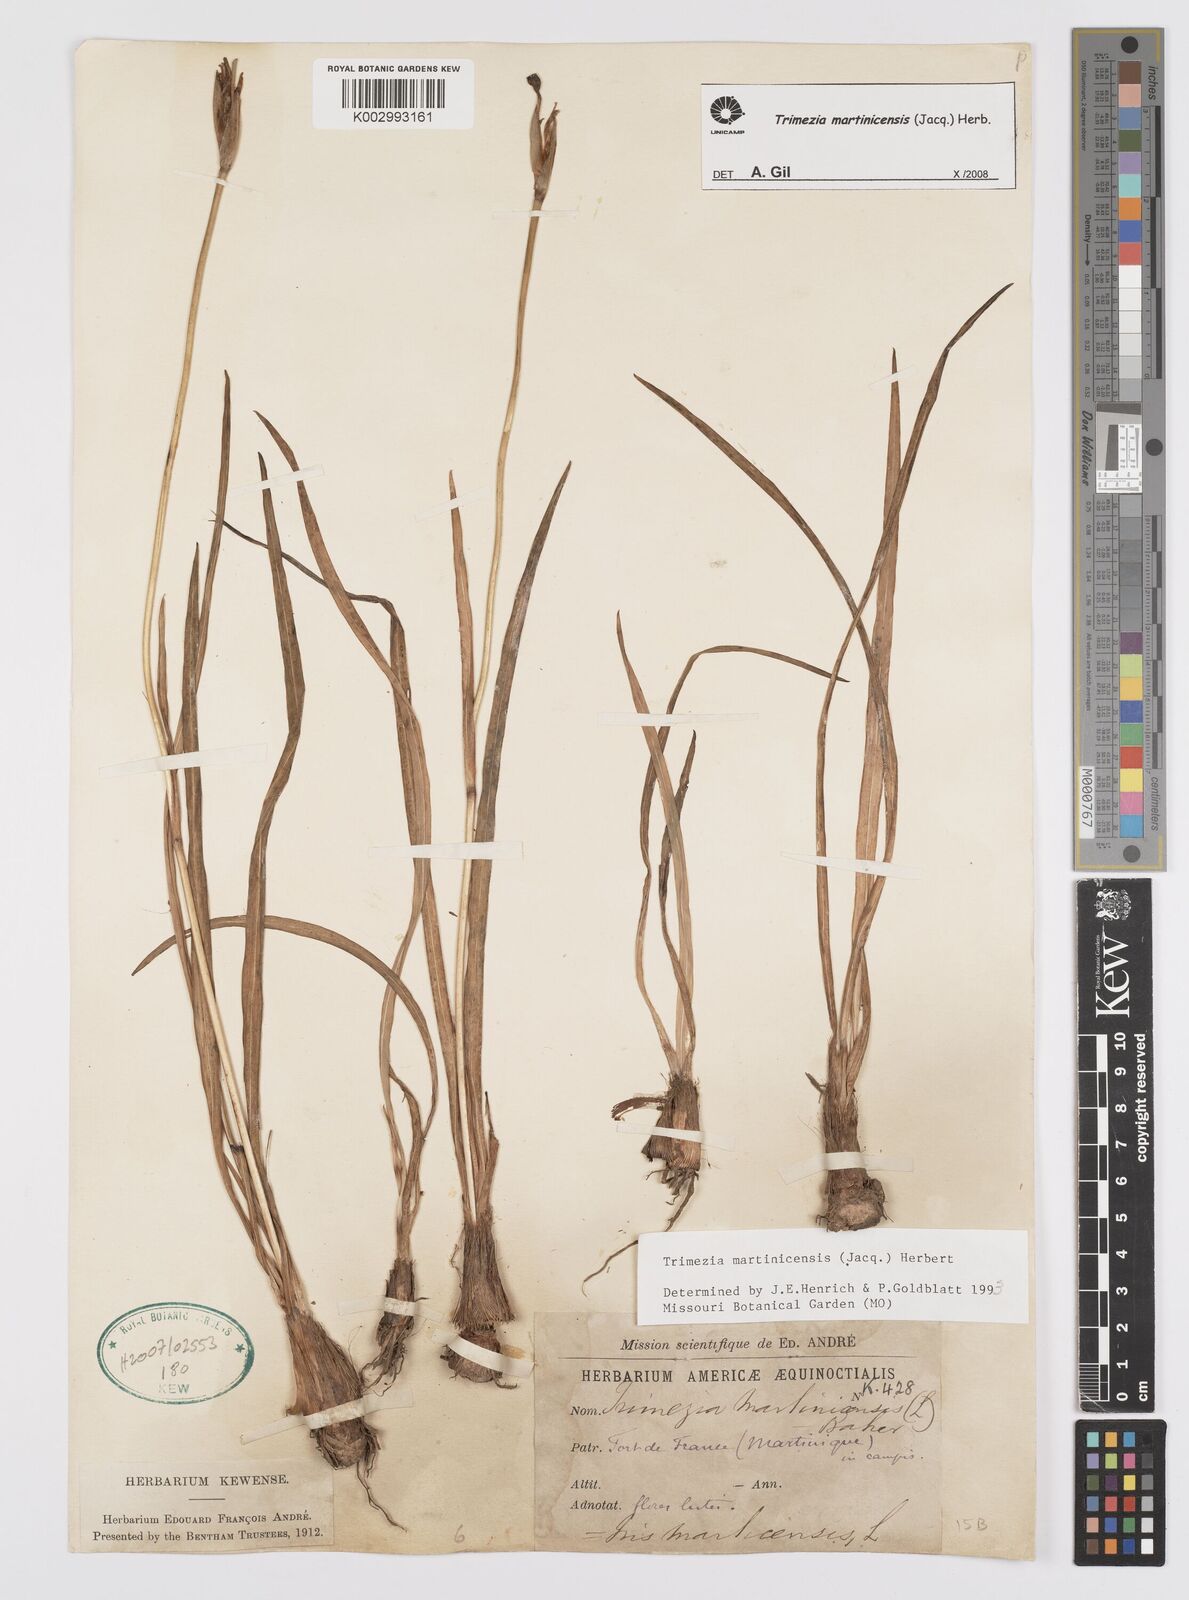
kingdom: Plantae
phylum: Tracheophyta
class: Liliopsida
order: Asparagales
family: Iridaceae
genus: Trimezia
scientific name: Trimezia martinicensis
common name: Martinique trimezia
